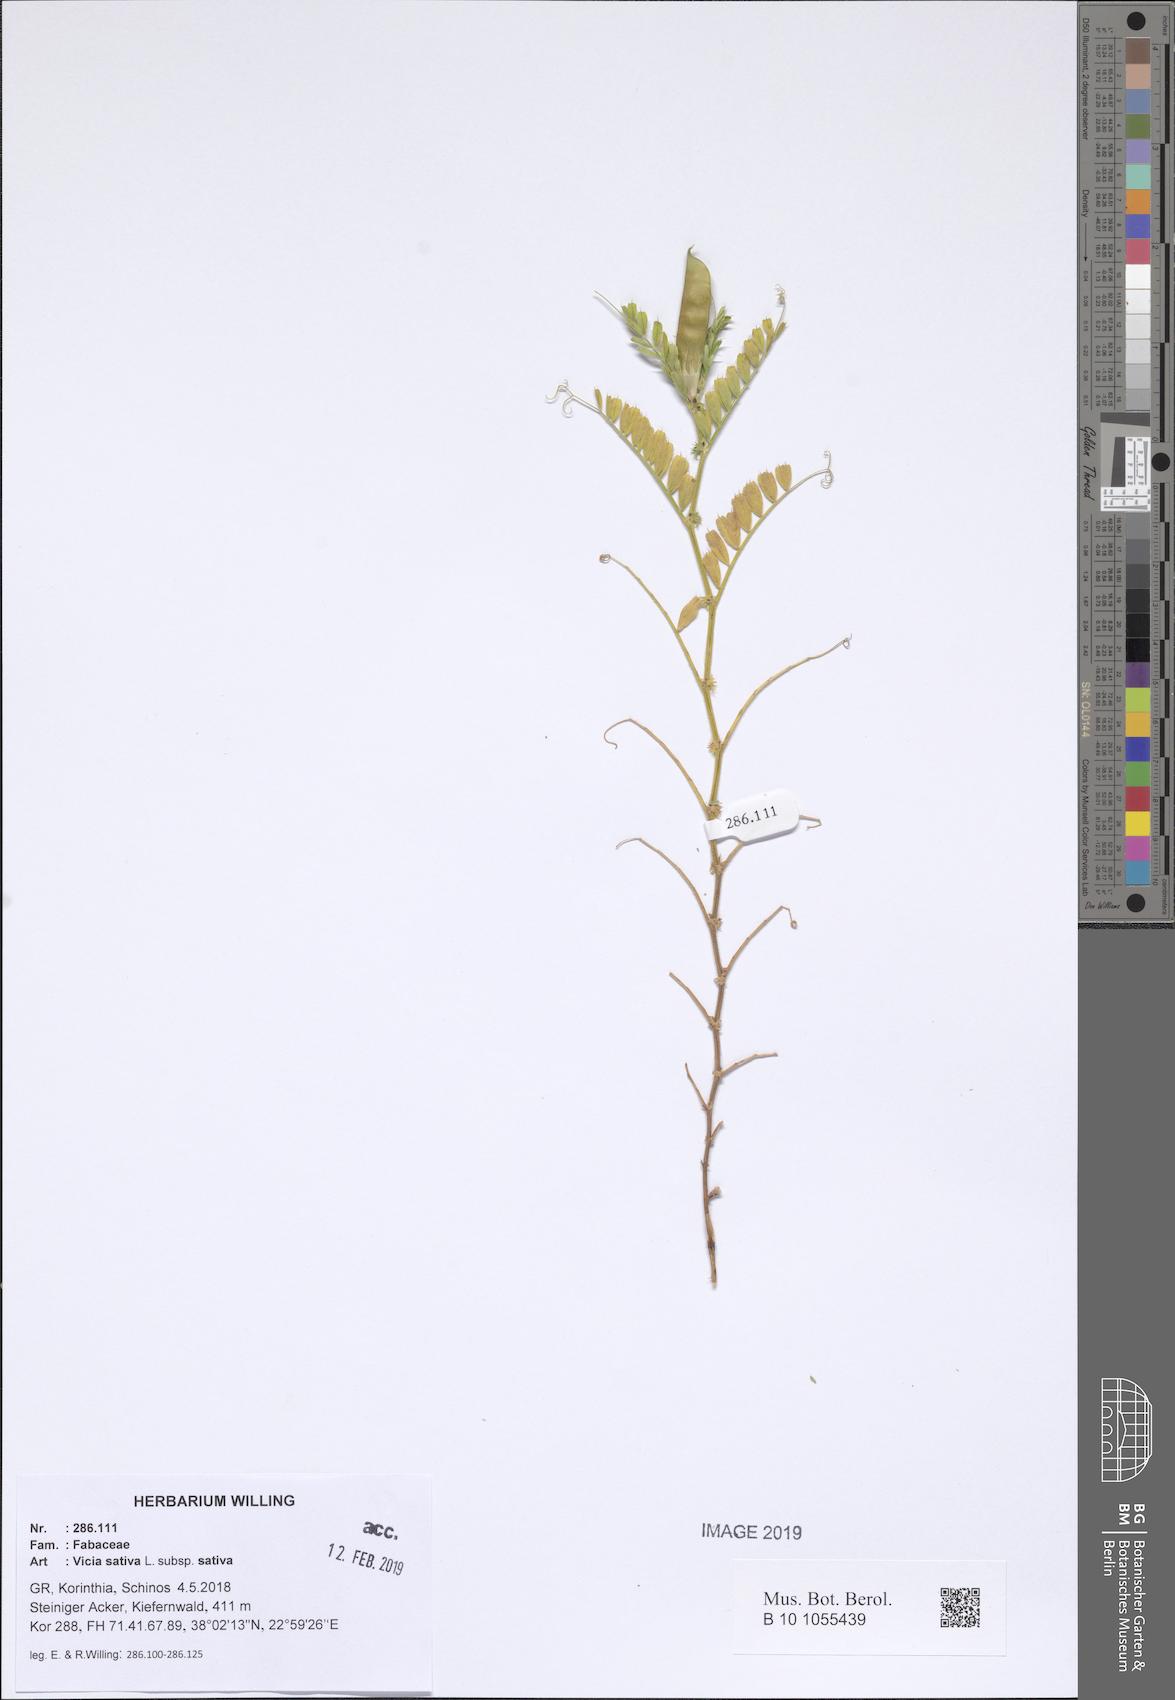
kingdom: Plantae
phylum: Tracheophyta
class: Magnoliopsida
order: Fabales
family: Fabaceae
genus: Vicia
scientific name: Vicia sativa
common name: Garden vetch
